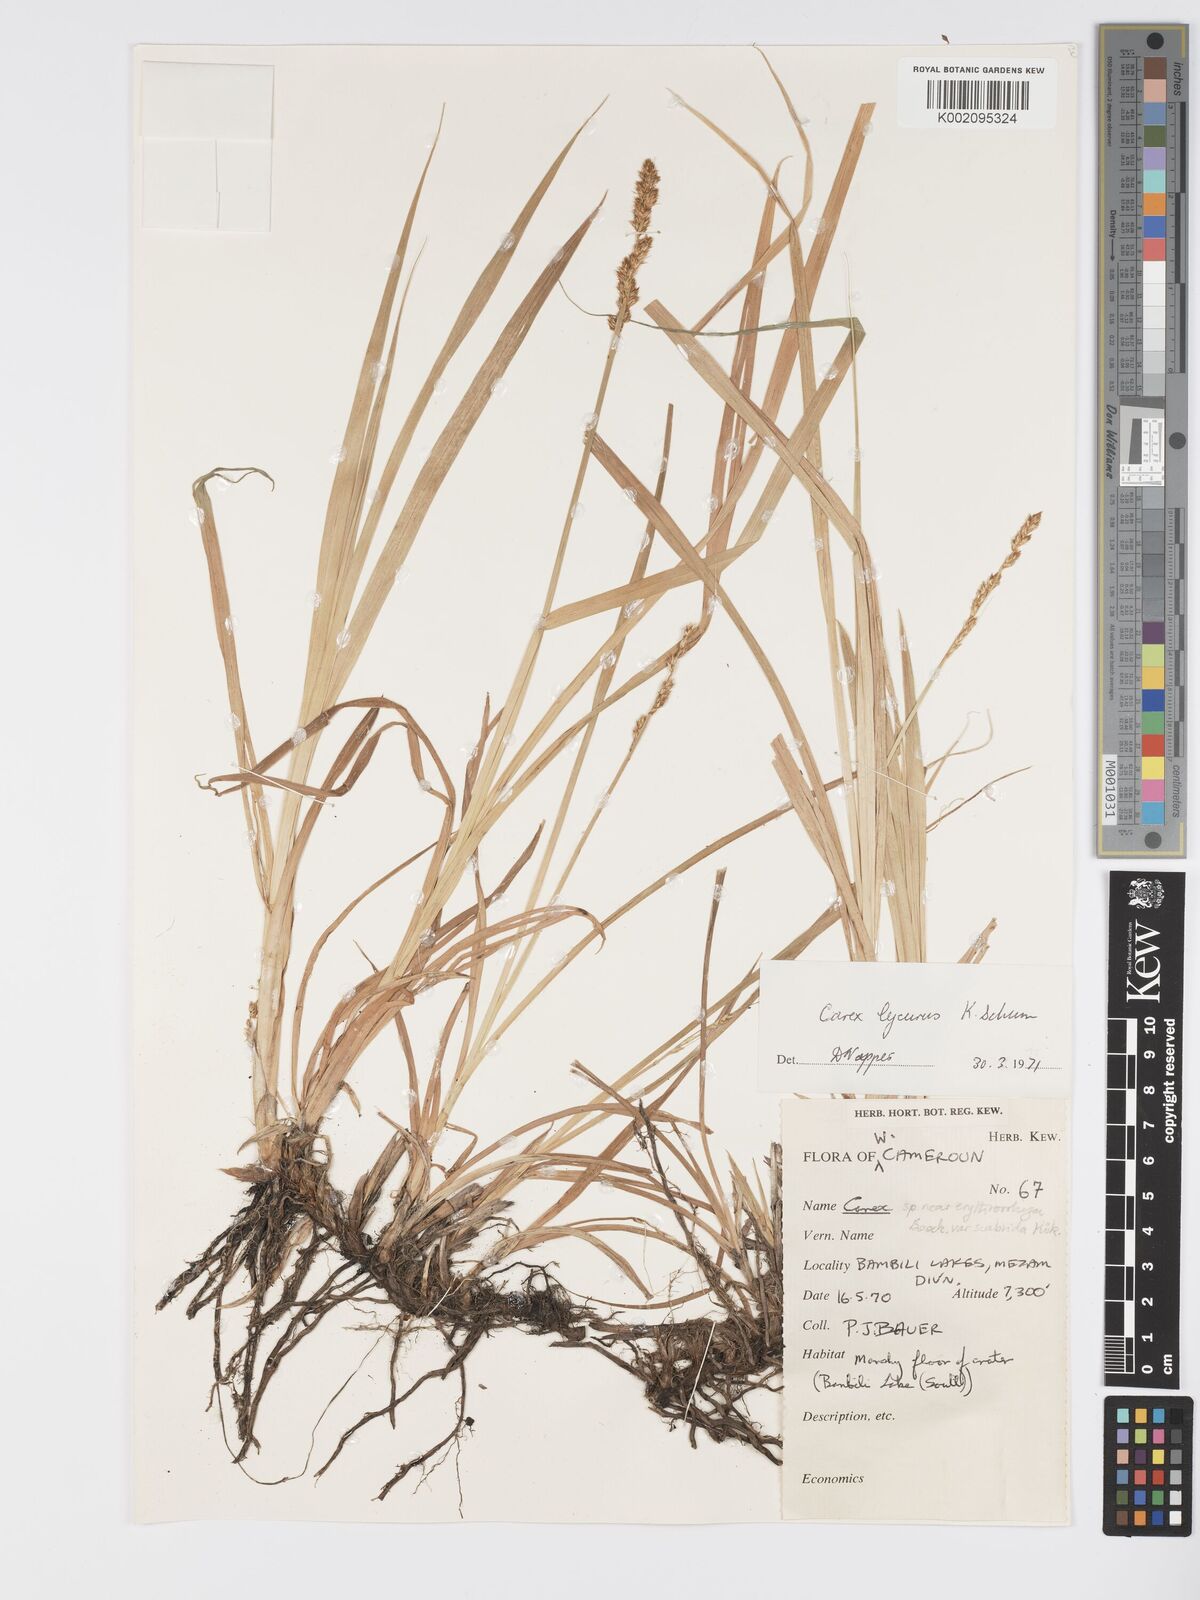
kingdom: Plantae
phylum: Tracheophyta
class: Liliopsida
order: Poales
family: Cyperaceae
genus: Carex
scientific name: Carex lycurus
